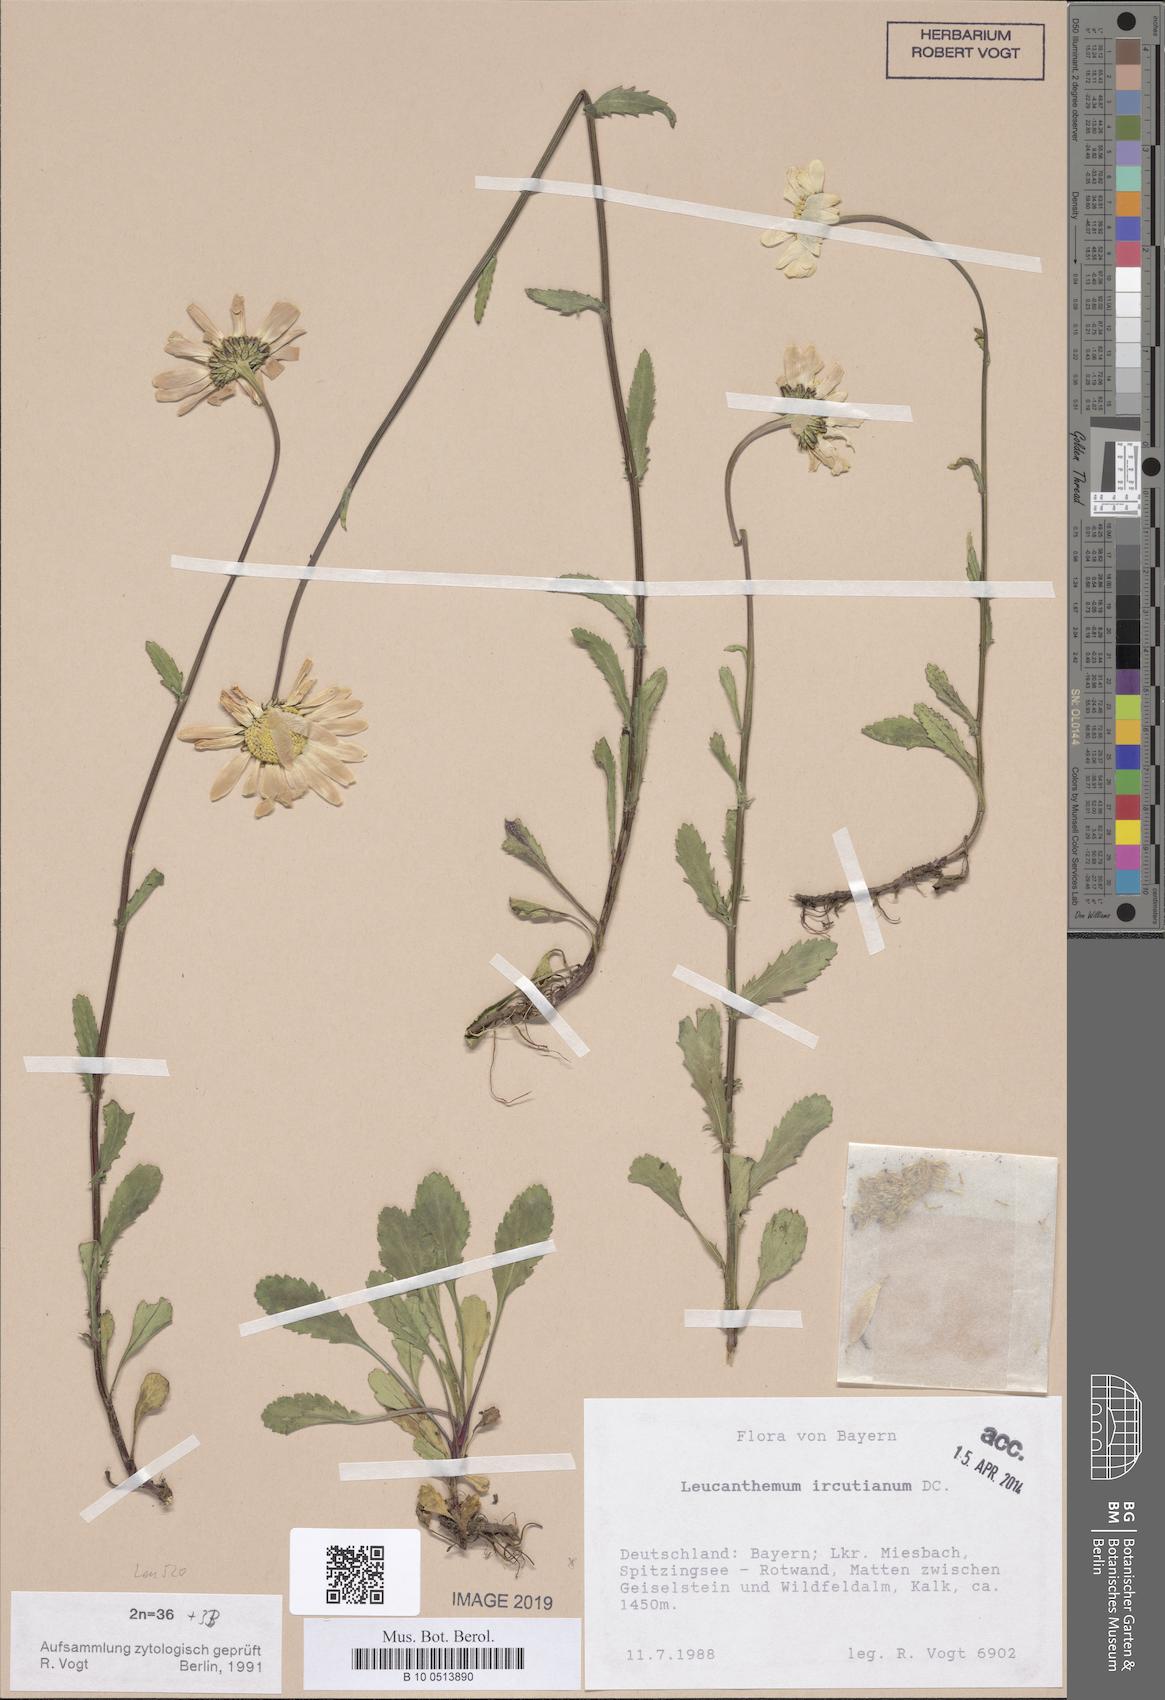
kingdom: Plantae
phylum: Tracheophyta
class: Magnoliopsida
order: Asterales
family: Asteraceae
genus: Leucanthemum
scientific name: Leucanthemum ircutianum
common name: Daisy
